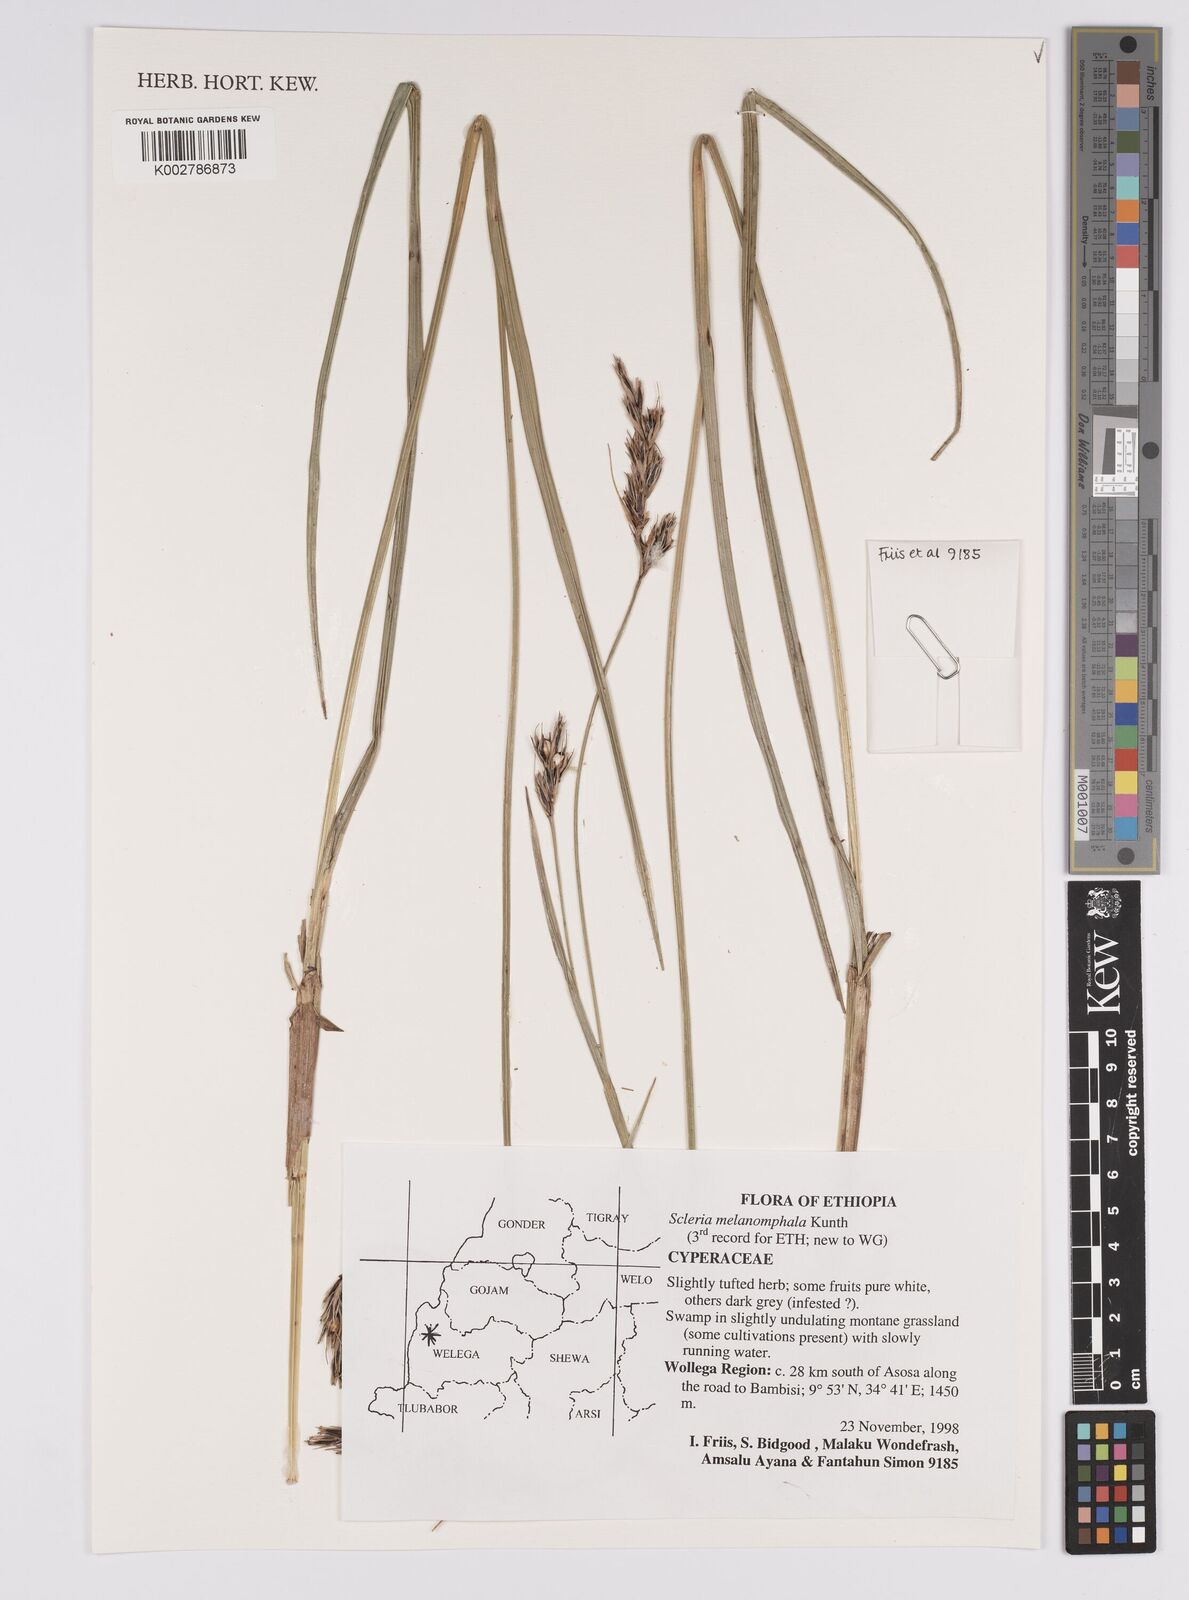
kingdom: Plantae
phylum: Tracheophyta
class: Liliopsida
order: Poales
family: Cyperaceae
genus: Scleria
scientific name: Scleria melanomphala
